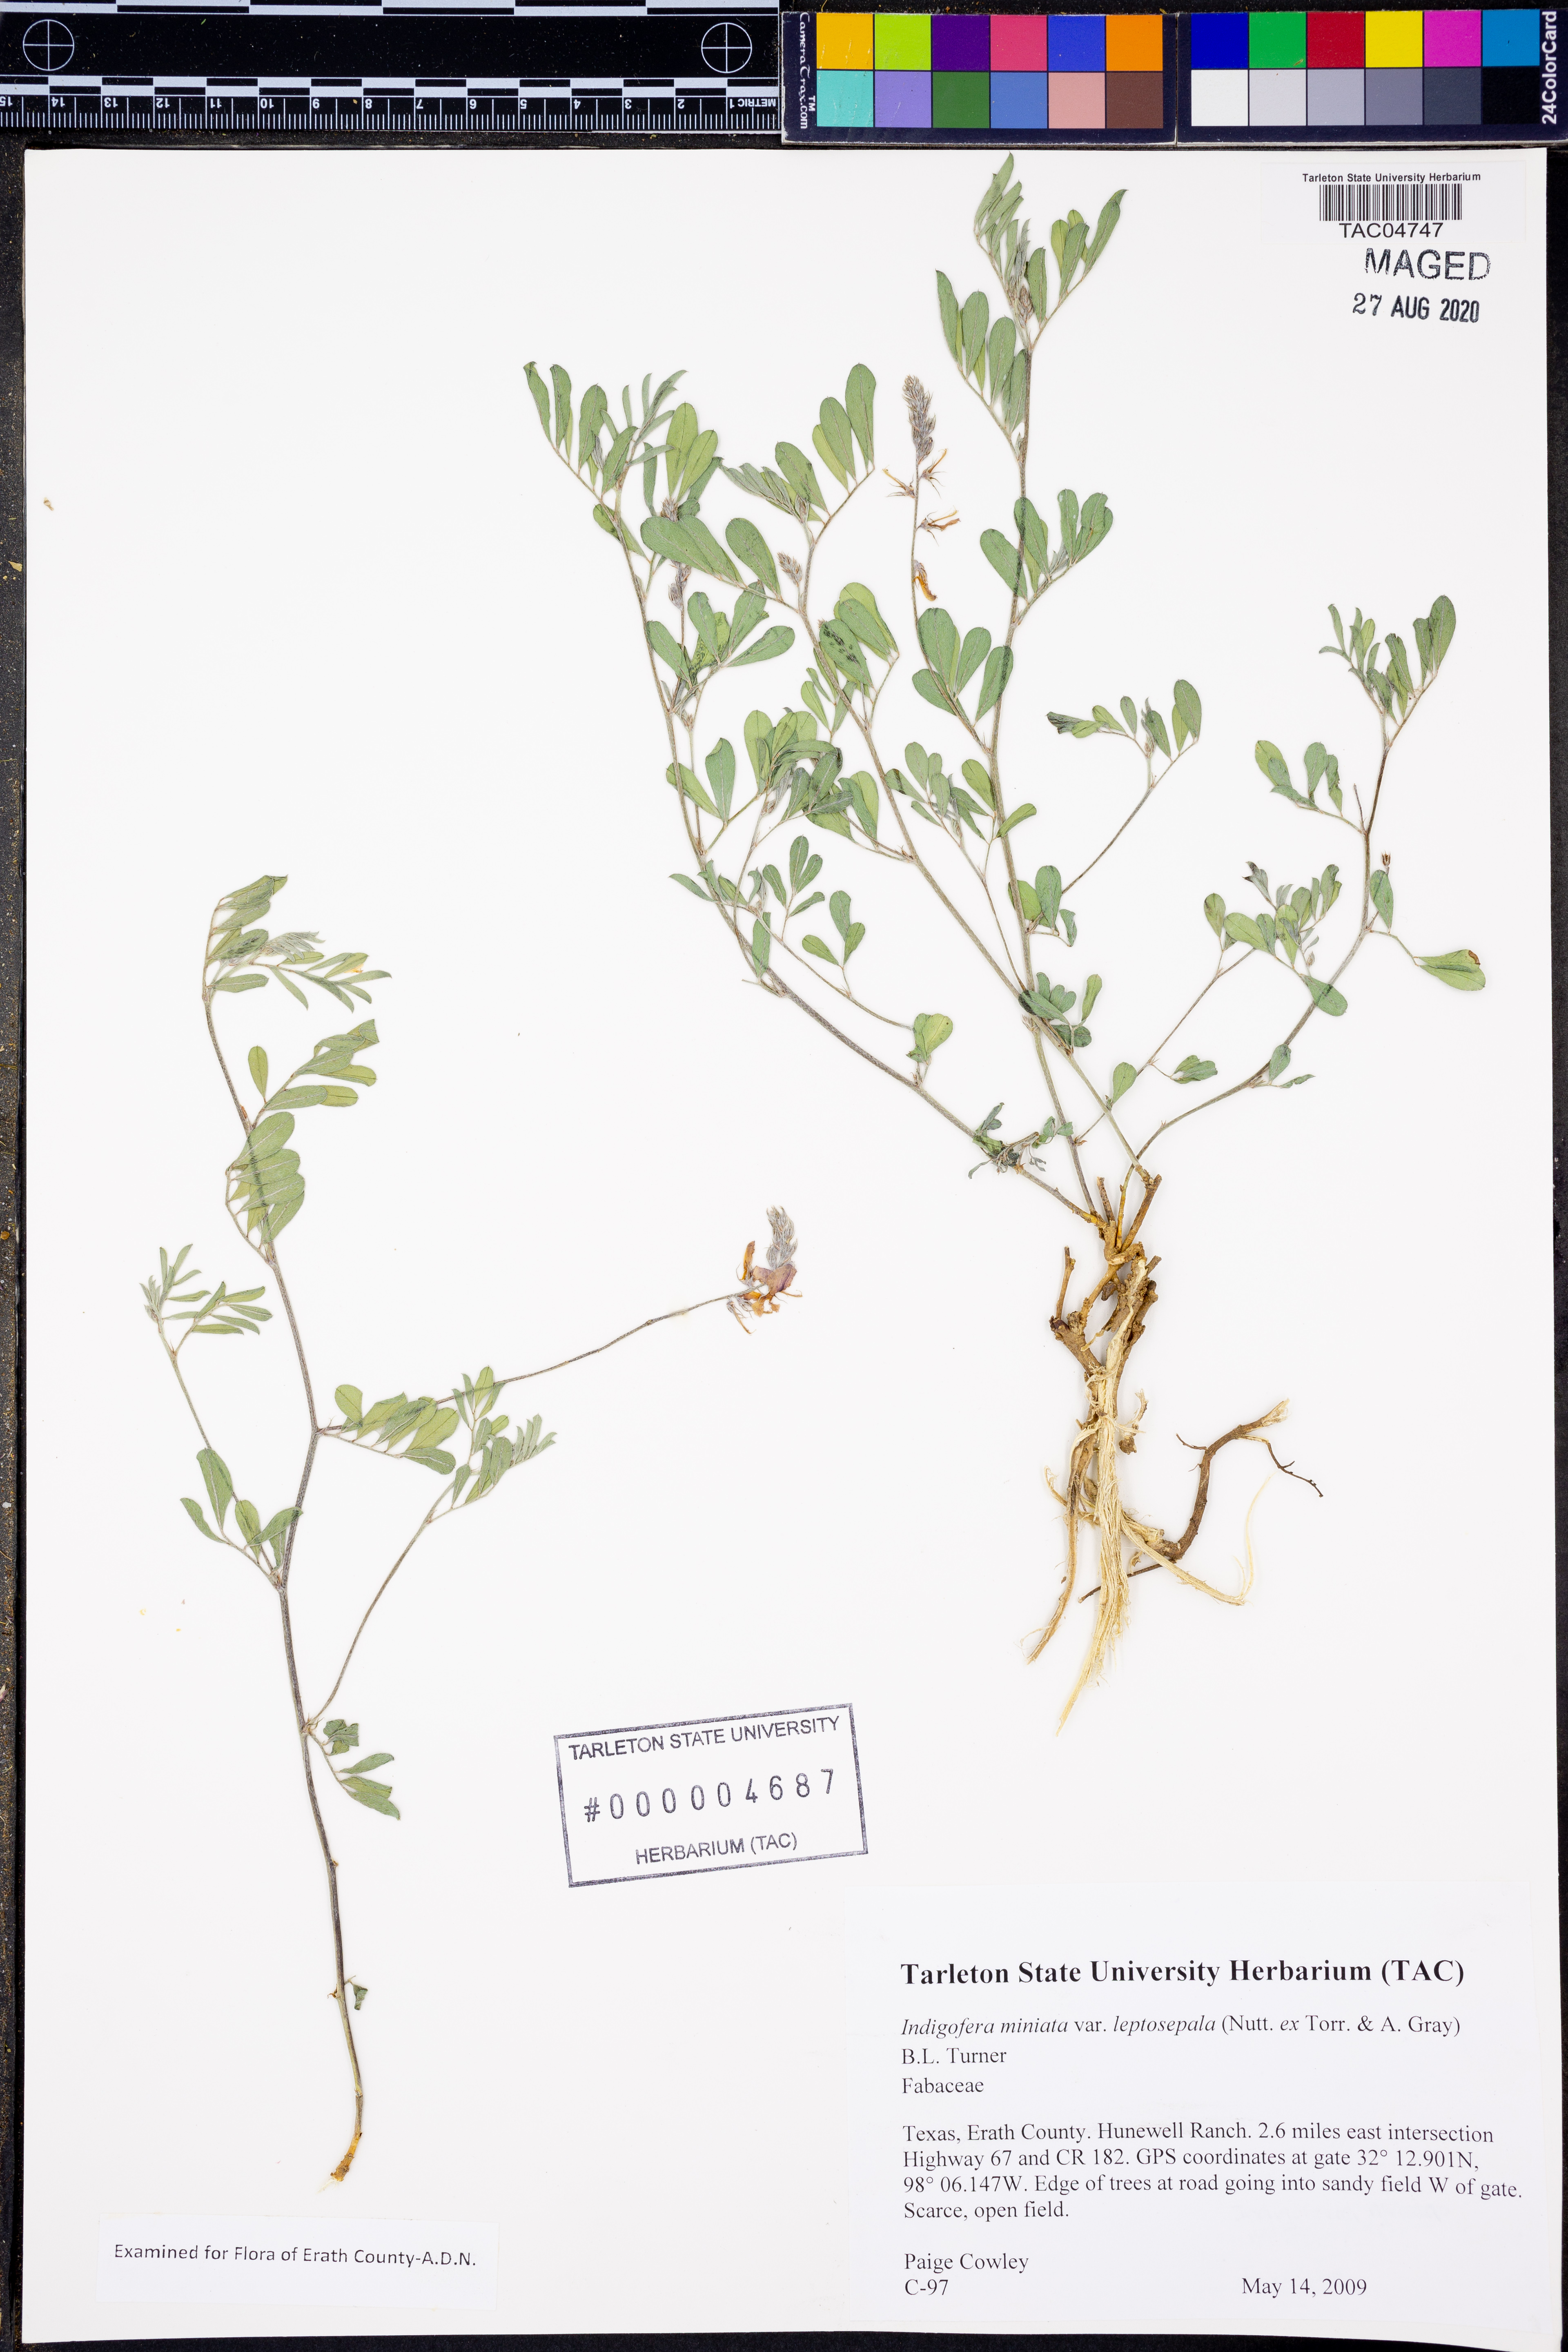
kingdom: Plantae
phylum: Tracheophyta
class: Magnoliopsida
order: Fabales
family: Fabaceae
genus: Indigofera
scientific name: Indigofera miniata
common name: Coast indigo
